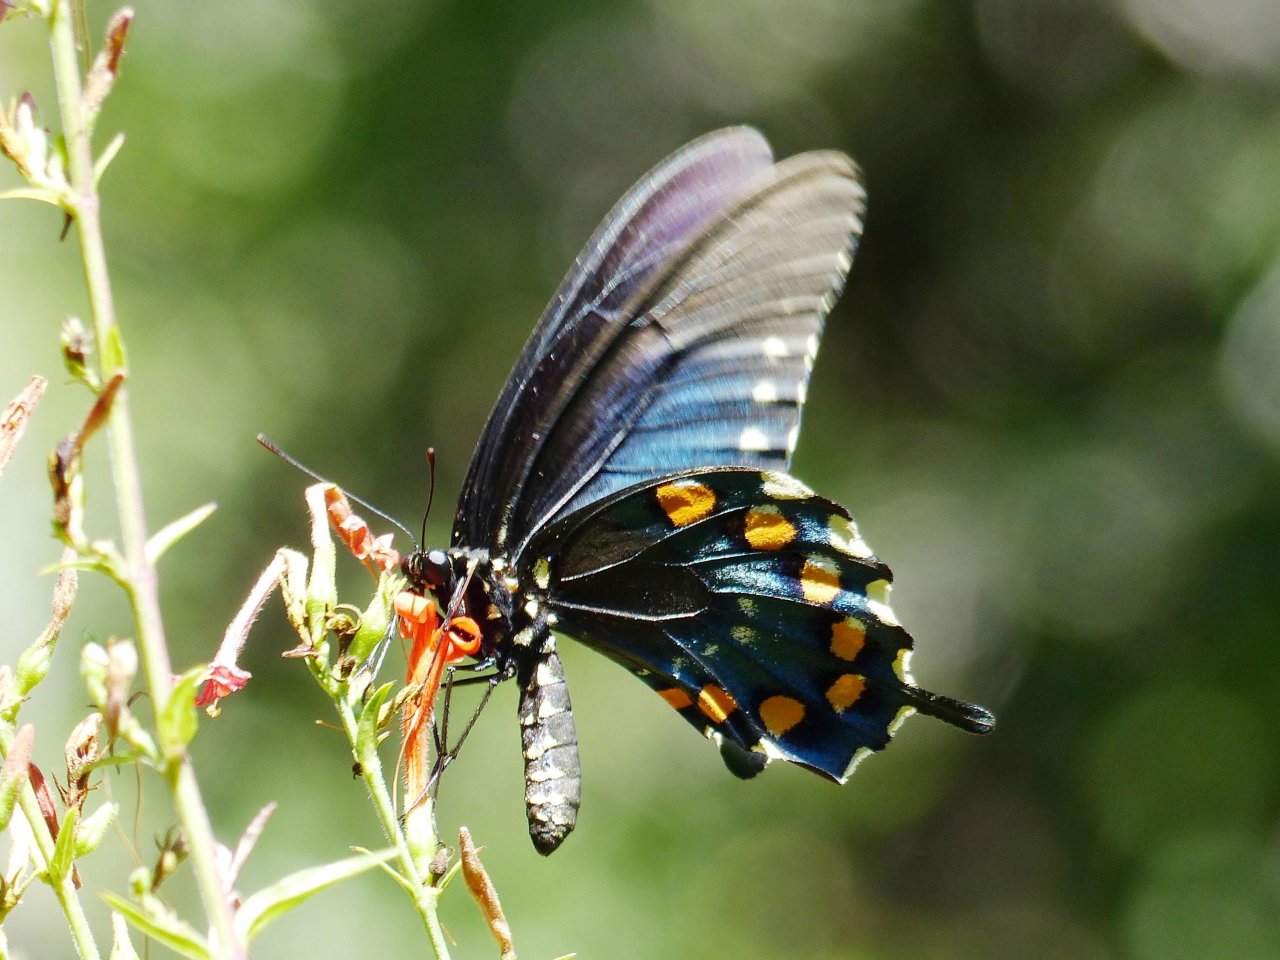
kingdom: Animalia
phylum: Arthropoda
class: Insecta
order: Lepidoptera
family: Papilionidae
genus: Battus
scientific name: Battus philenor
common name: Pipevine Swallowtail
